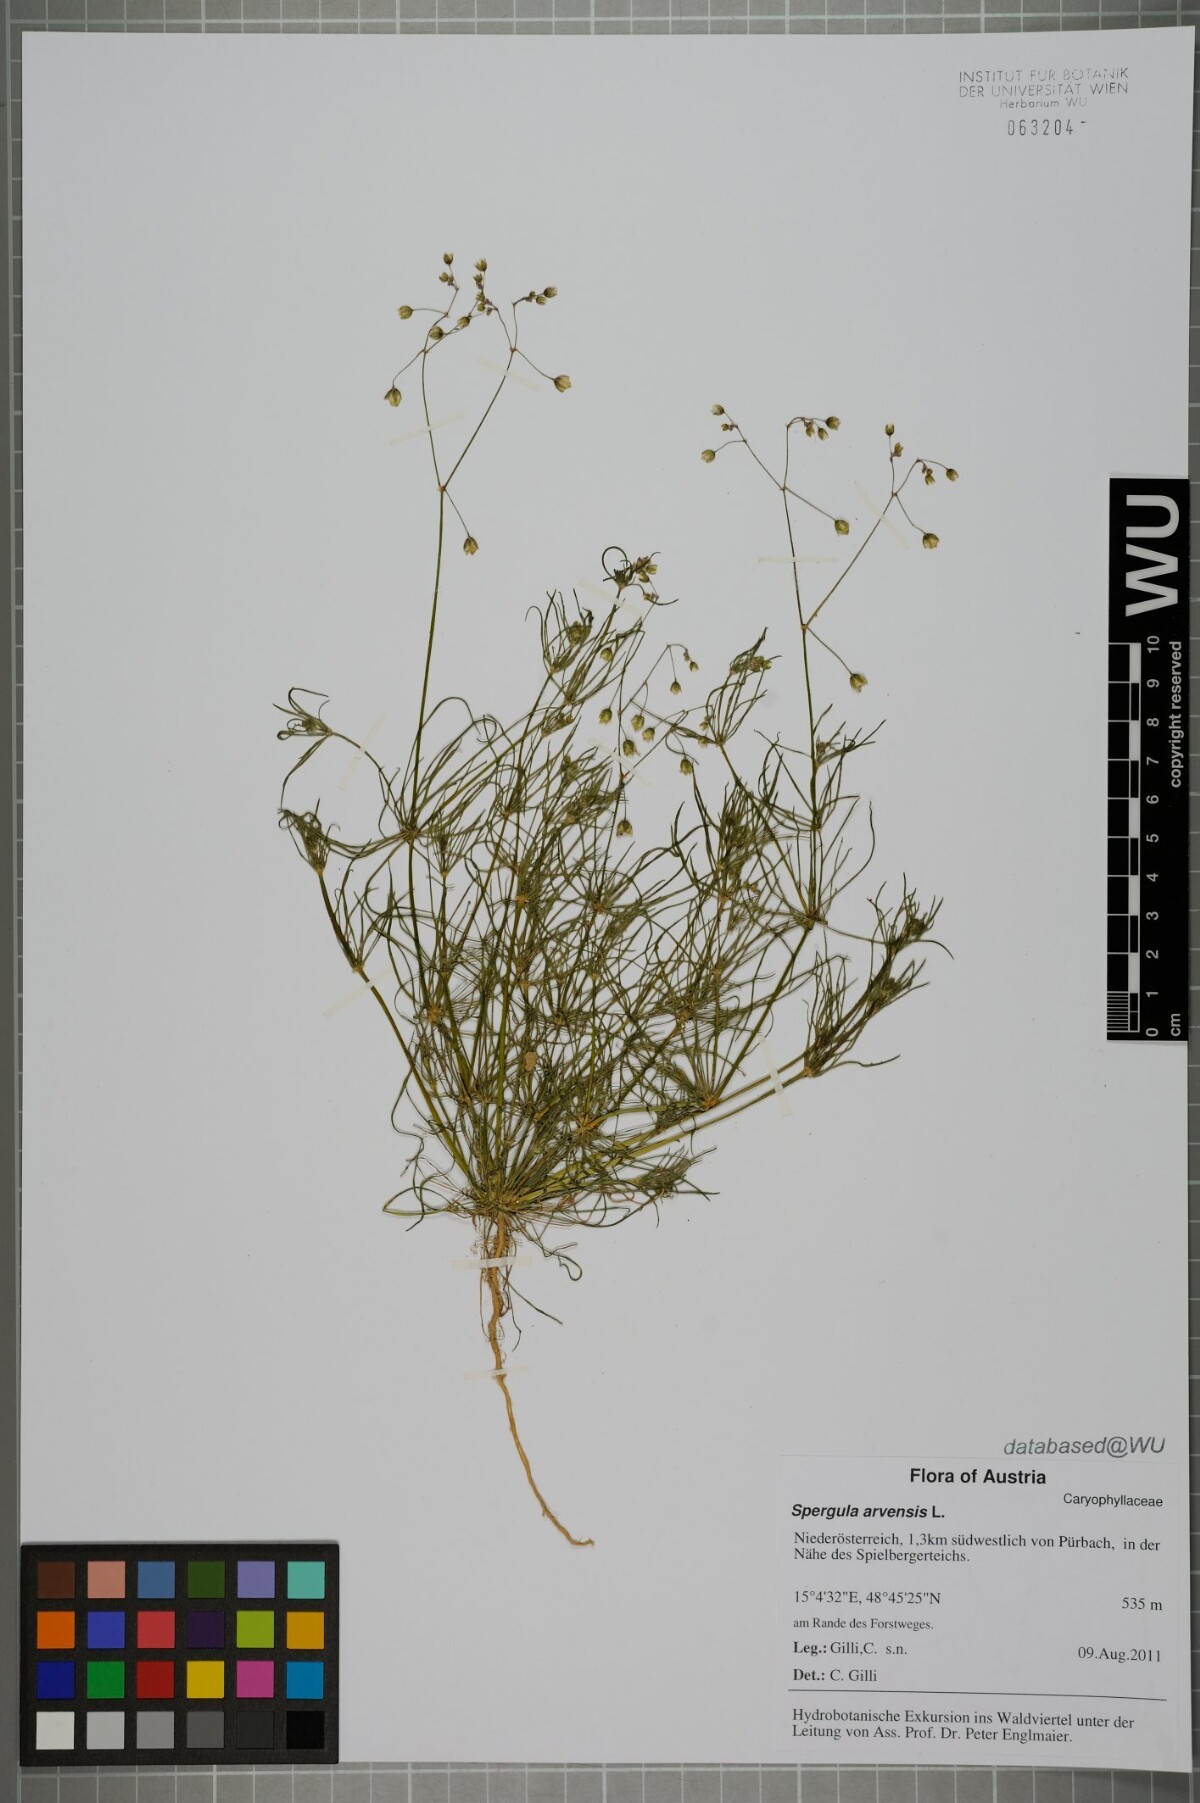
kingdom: Plantae
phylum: Tracheophyta
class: Magnoliopsida
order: Caryophyllales
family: Caryophyllaceae
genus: Spergula
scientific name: Spergula arvensis
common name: Corn spurrey
